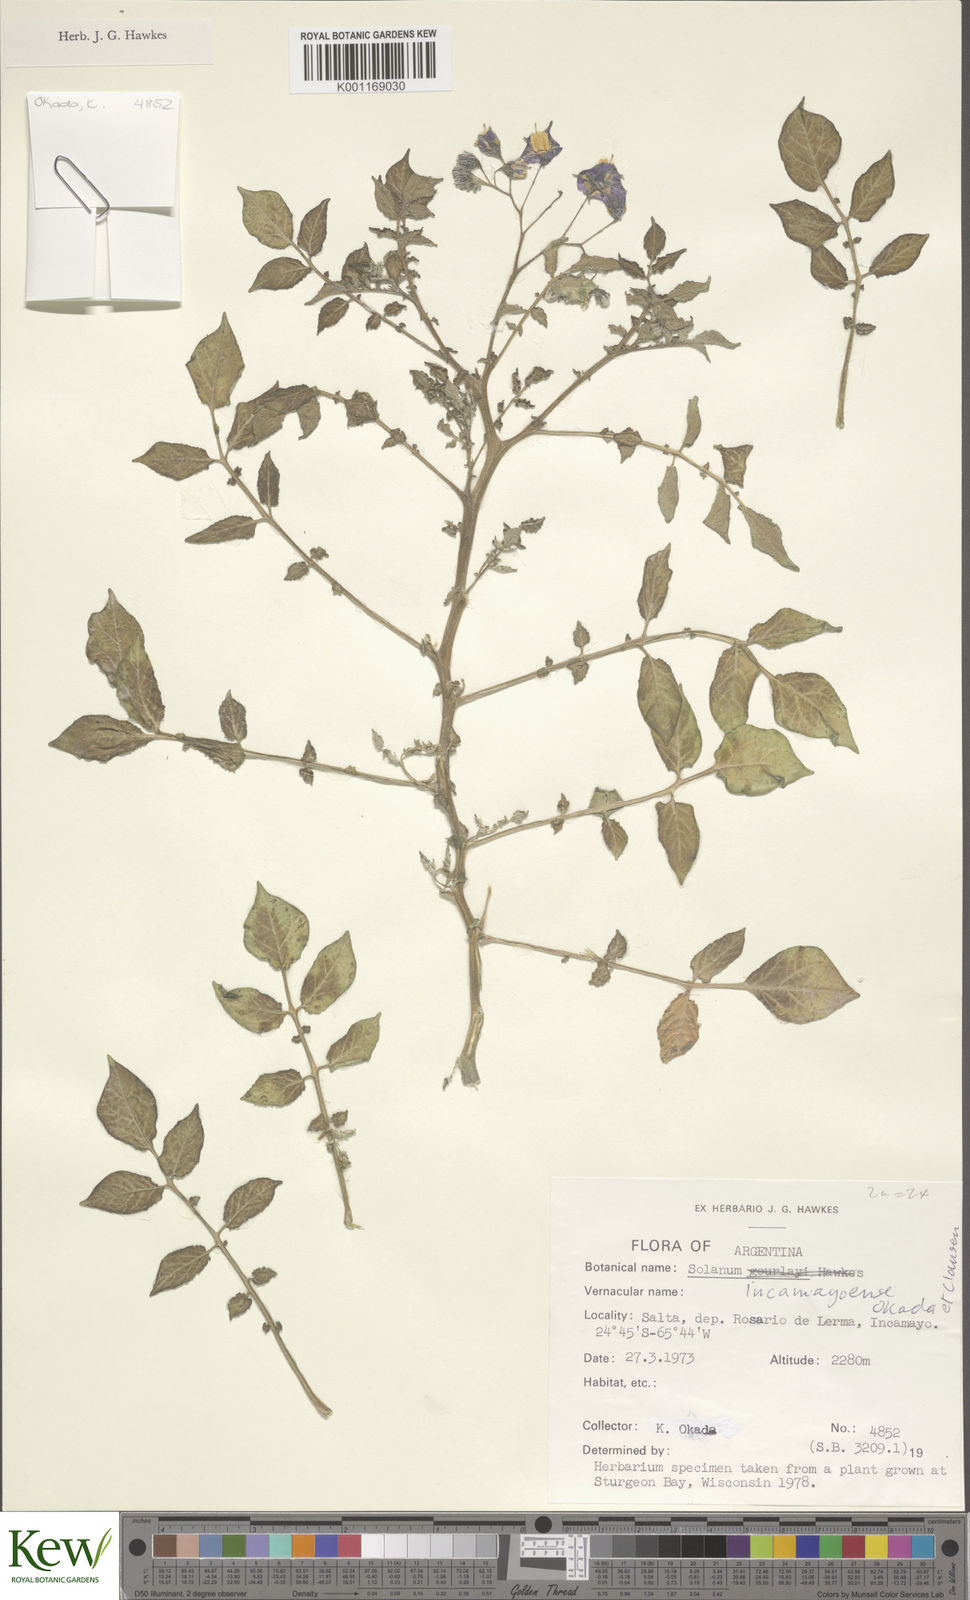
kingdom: Plantae
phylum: Tracheophyta
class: Magnoliopsida
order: Solanales
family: Solanaceae
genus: Solanum
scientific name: Solanum brevicaule
